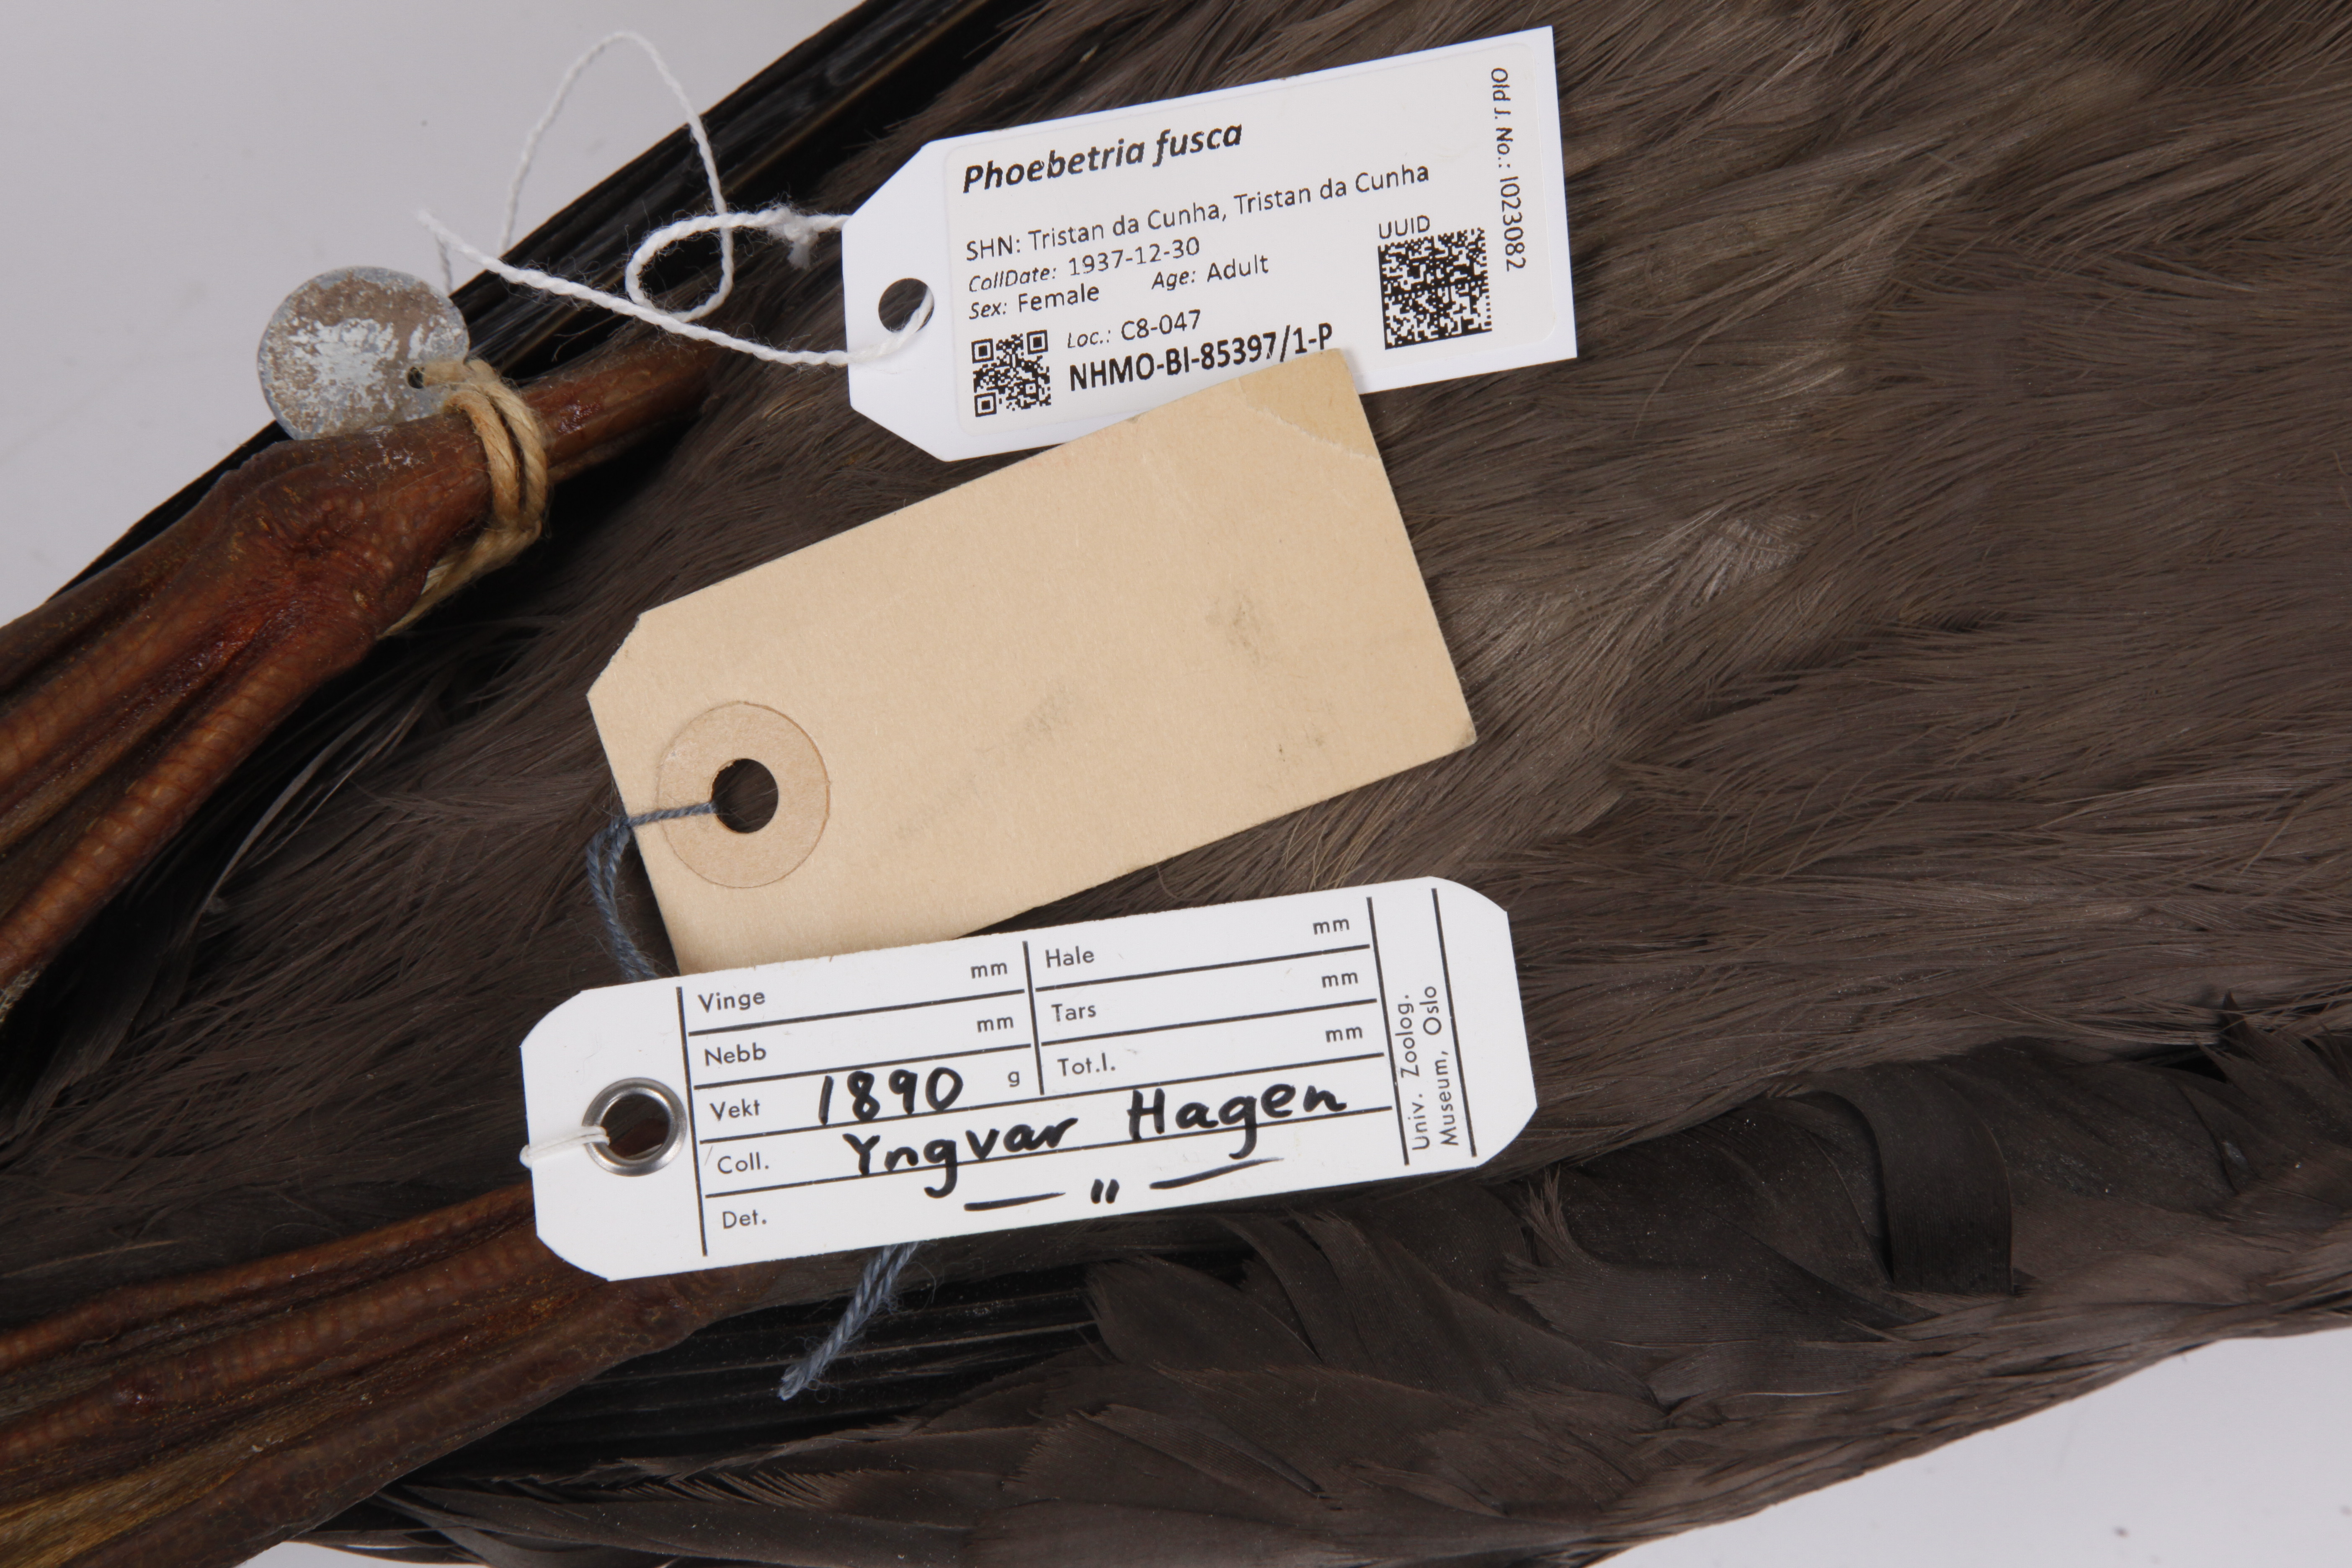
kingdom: Animalia
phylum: Chordata
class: Aves
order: Procellariiformes
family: Diomedeidae
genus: Phoebetria
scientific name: Phoebetria fusca
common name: Sooty albatross
